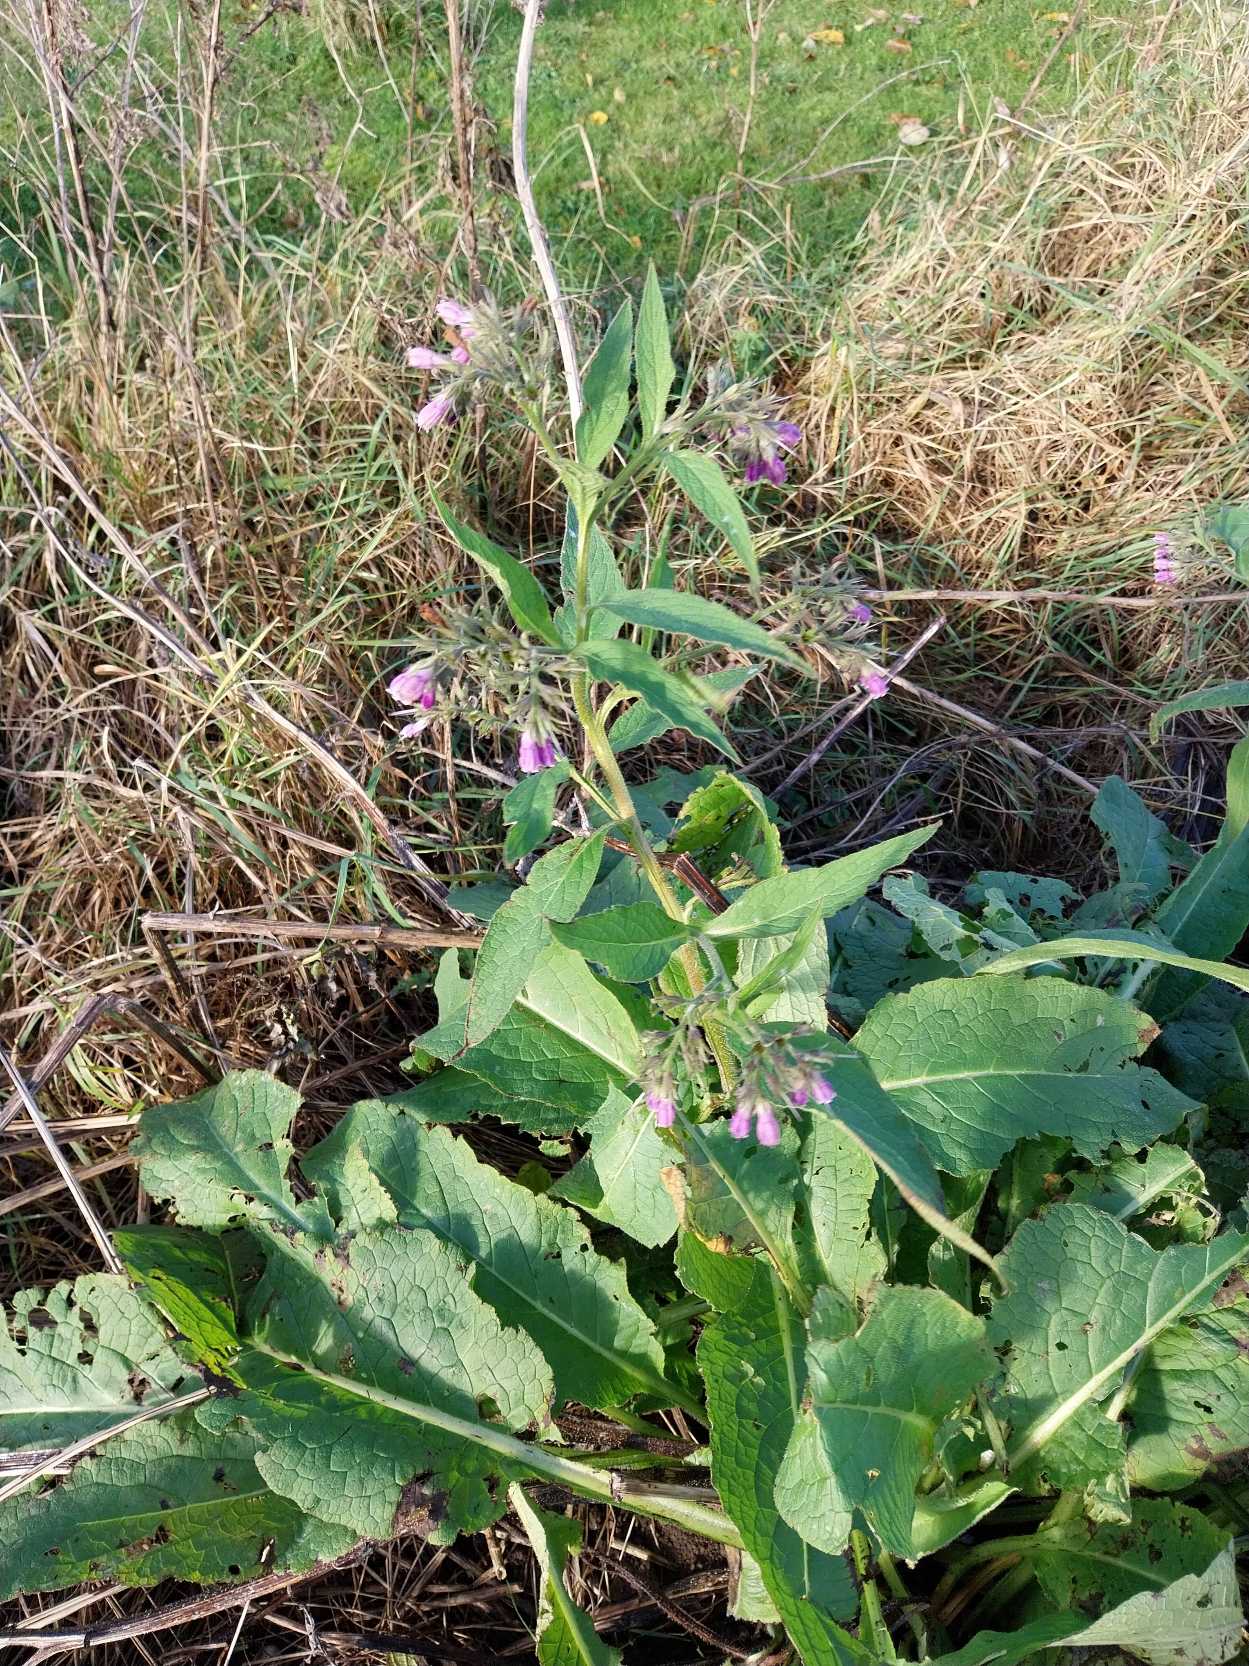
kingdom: Plantae
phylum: Tracheophyta
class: Magnoliopsida
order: Boraginales
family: Boraginaceae
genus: Symphytum
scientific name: Symphytum uplandicum
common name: Foder-kulsukker
